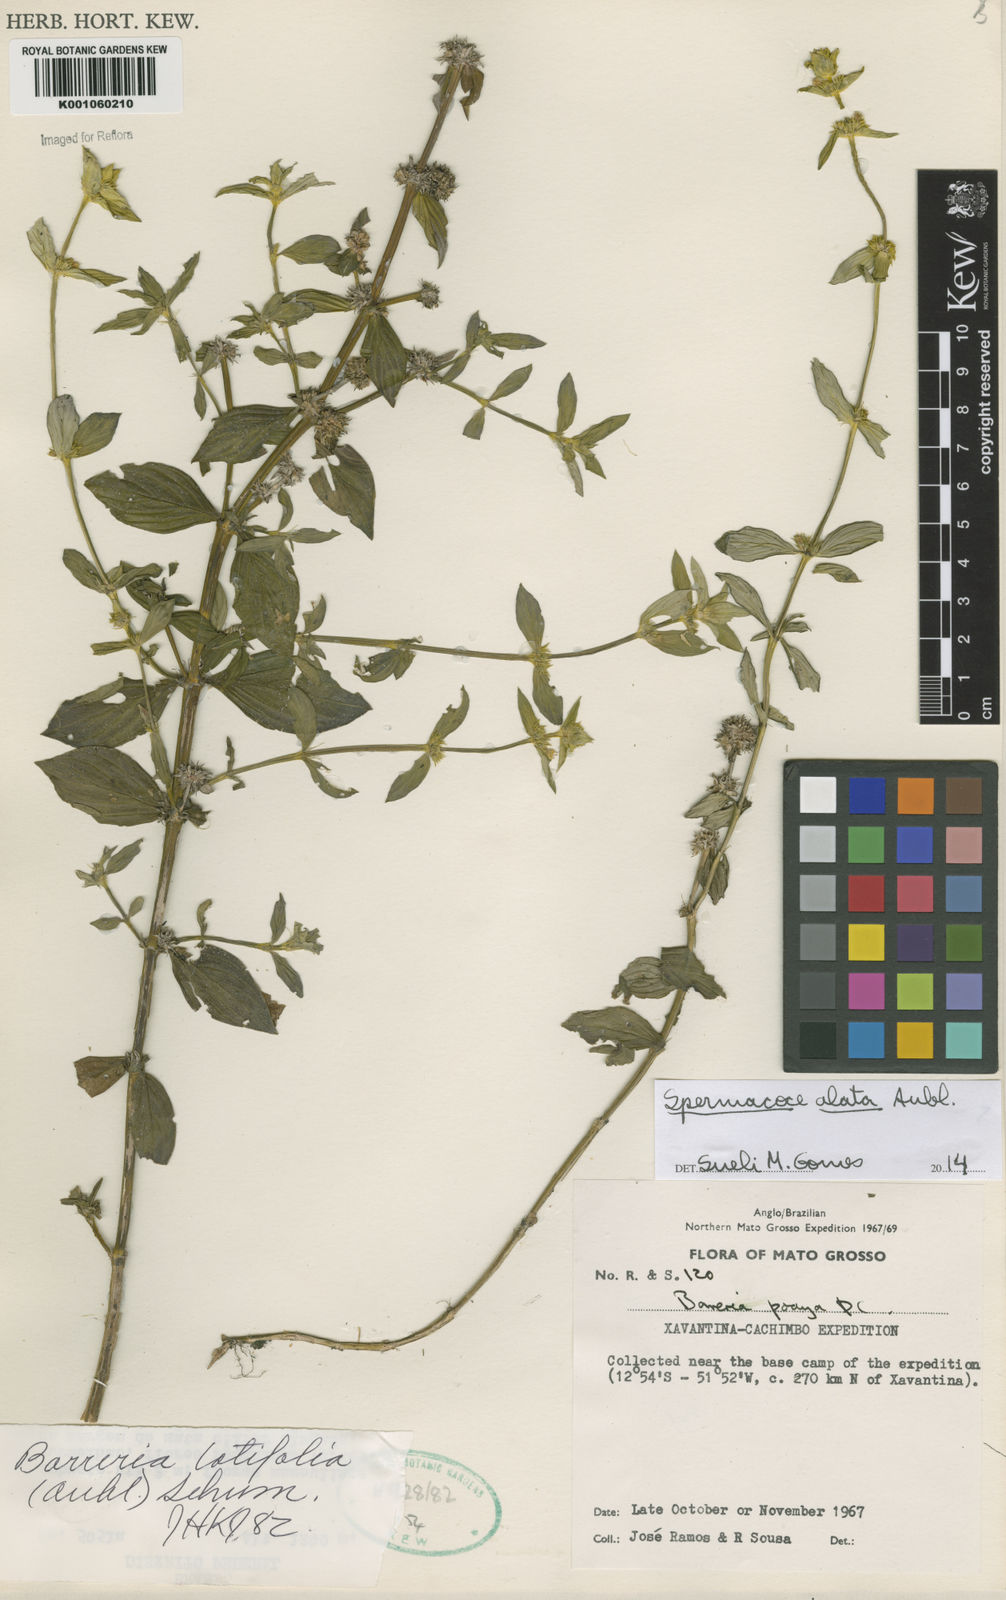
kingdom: Plantae
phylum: Tracheophyta
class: Magnoliopsida
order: Gentianales
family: Rubiaceae
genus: Spermacoce
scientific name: Spermacoce
